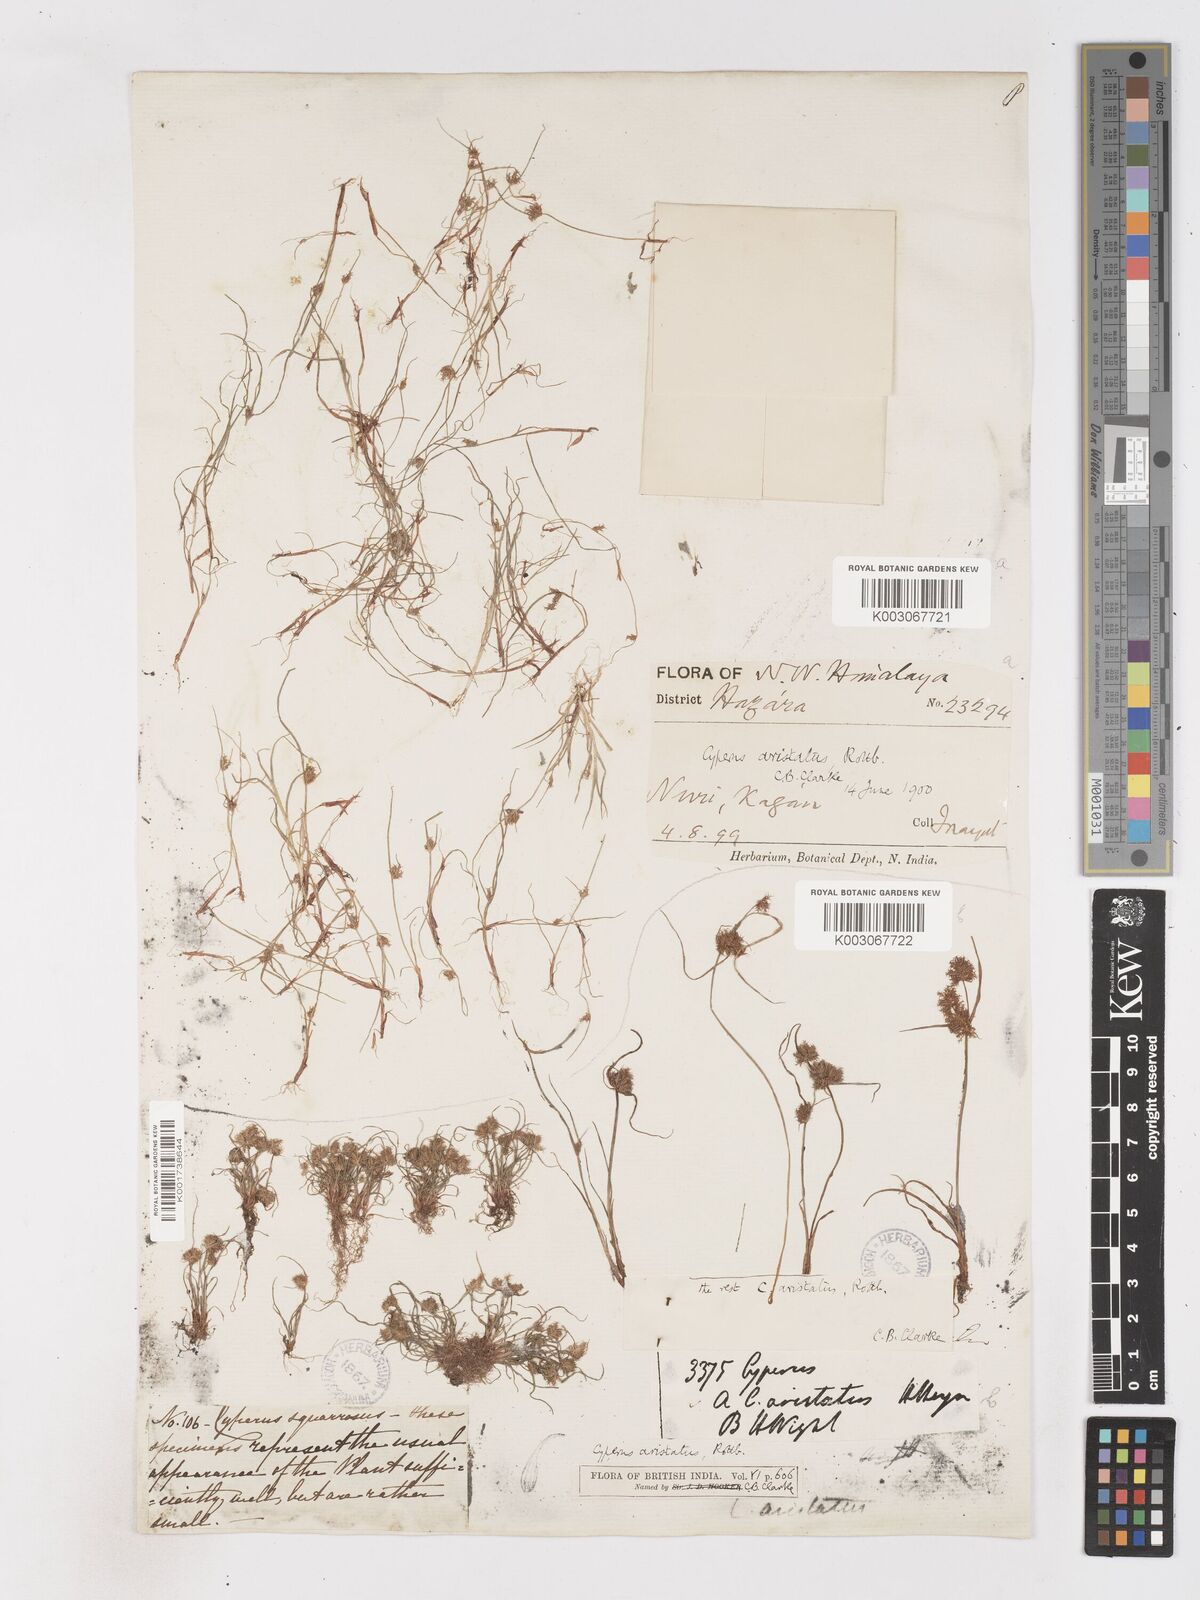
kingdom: Plantae
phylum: Tracheophyta
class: Liliopsida
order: Poales
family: Cyperaceae
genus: Cyperus
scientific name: Cyperus squarrosus
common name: Awned cyperus
